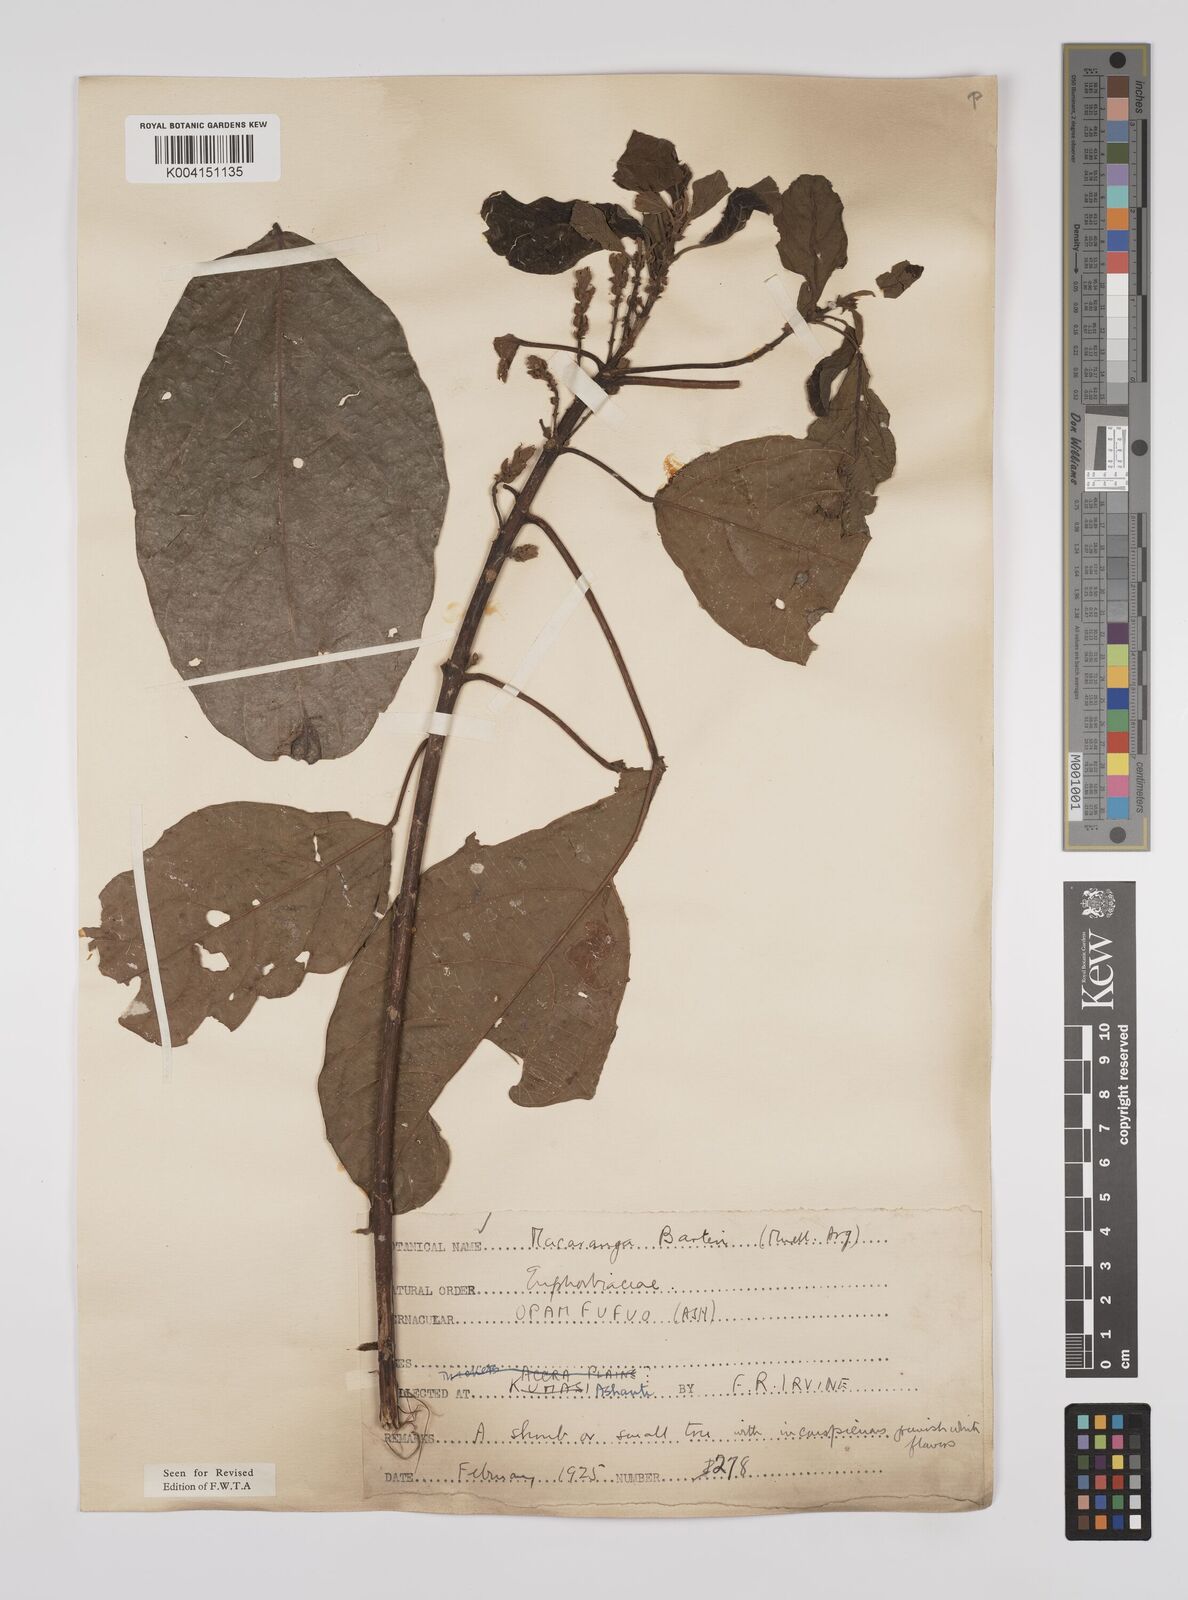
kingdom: Plantae
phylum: Tracheophyta
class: Magnoliopsida
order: Malpighiales
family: Euphorbiaceae
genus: Macaranga
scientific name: Macaranga barteri
